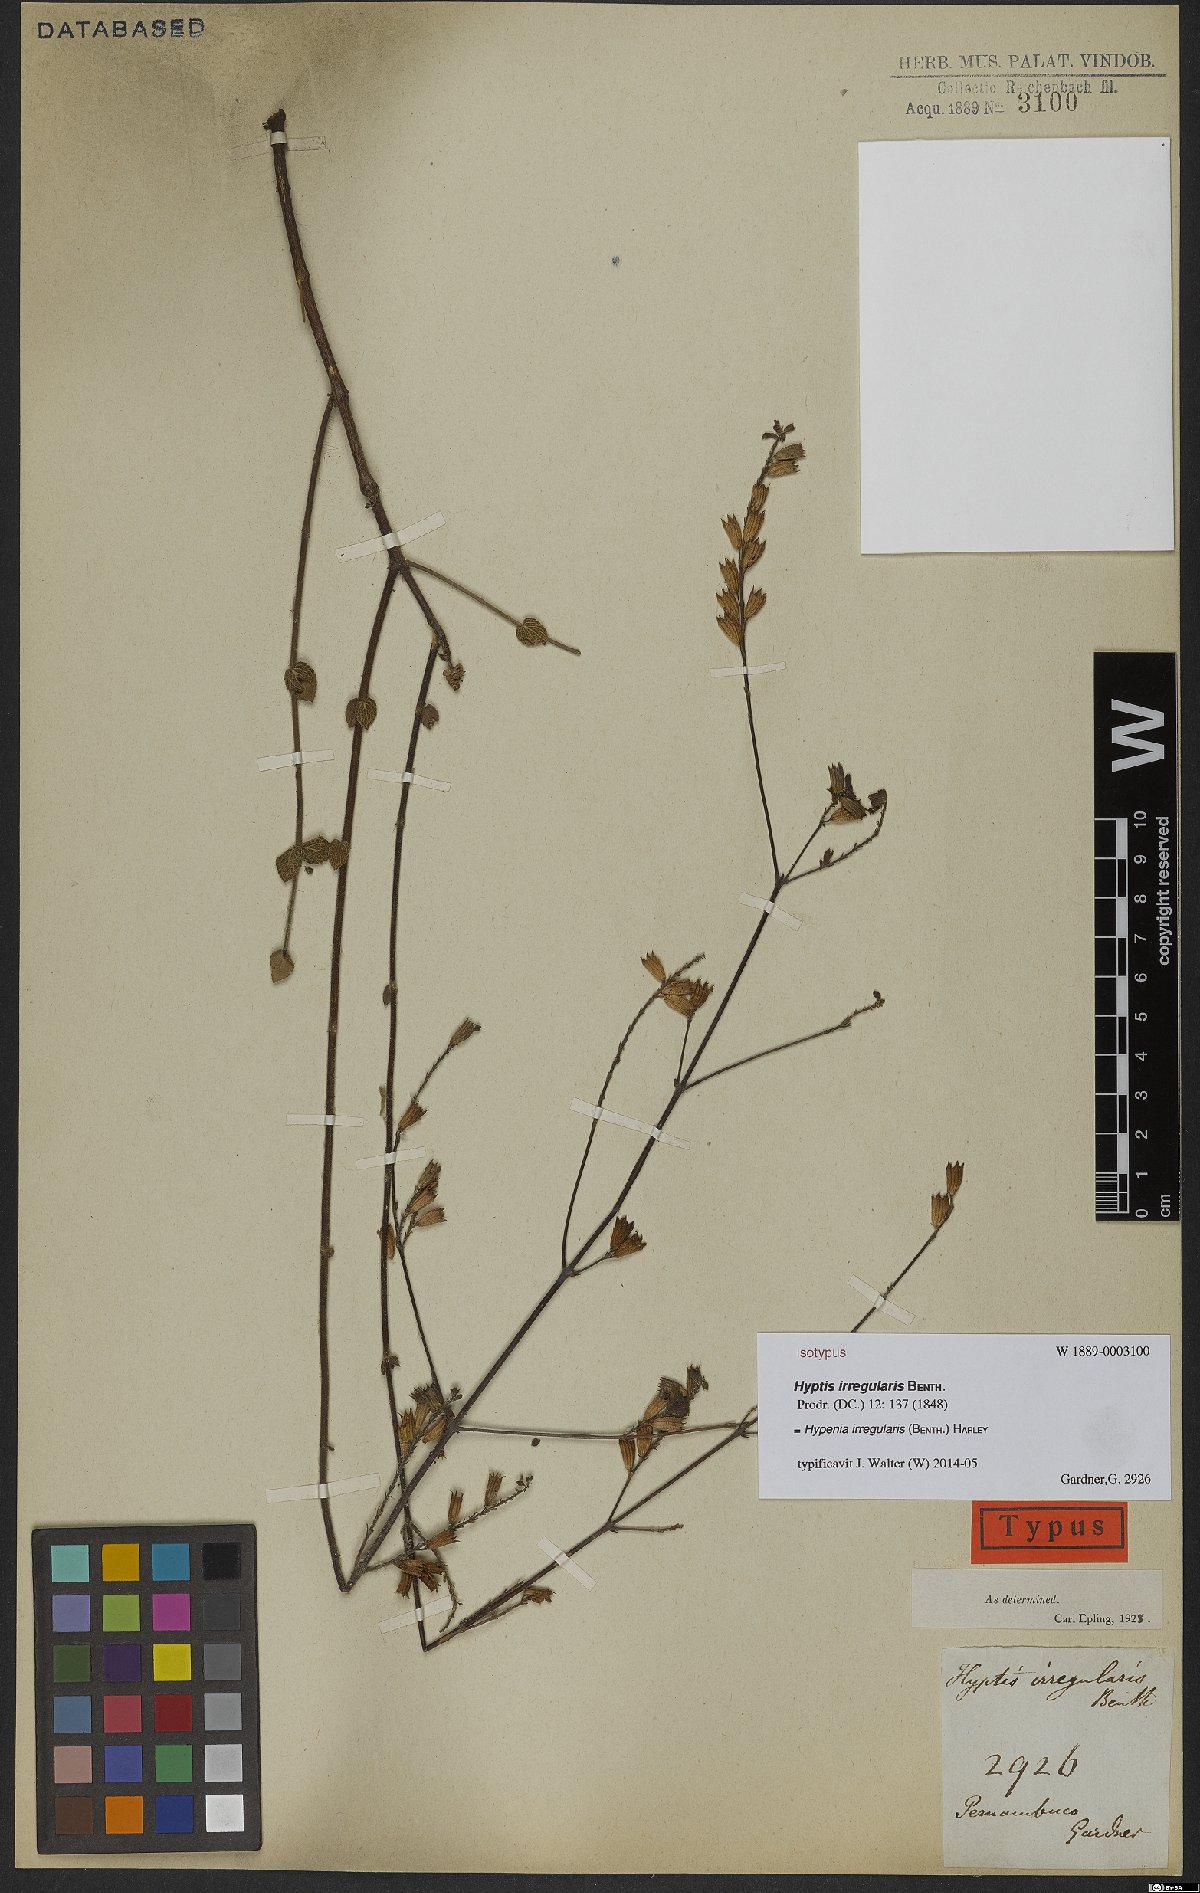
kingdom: Plantae
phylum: Tracheophyta
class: Magnoliopsida
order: Lamiales
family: Lamiaceae
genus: Hypenia
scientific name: Hypenia irregularis
